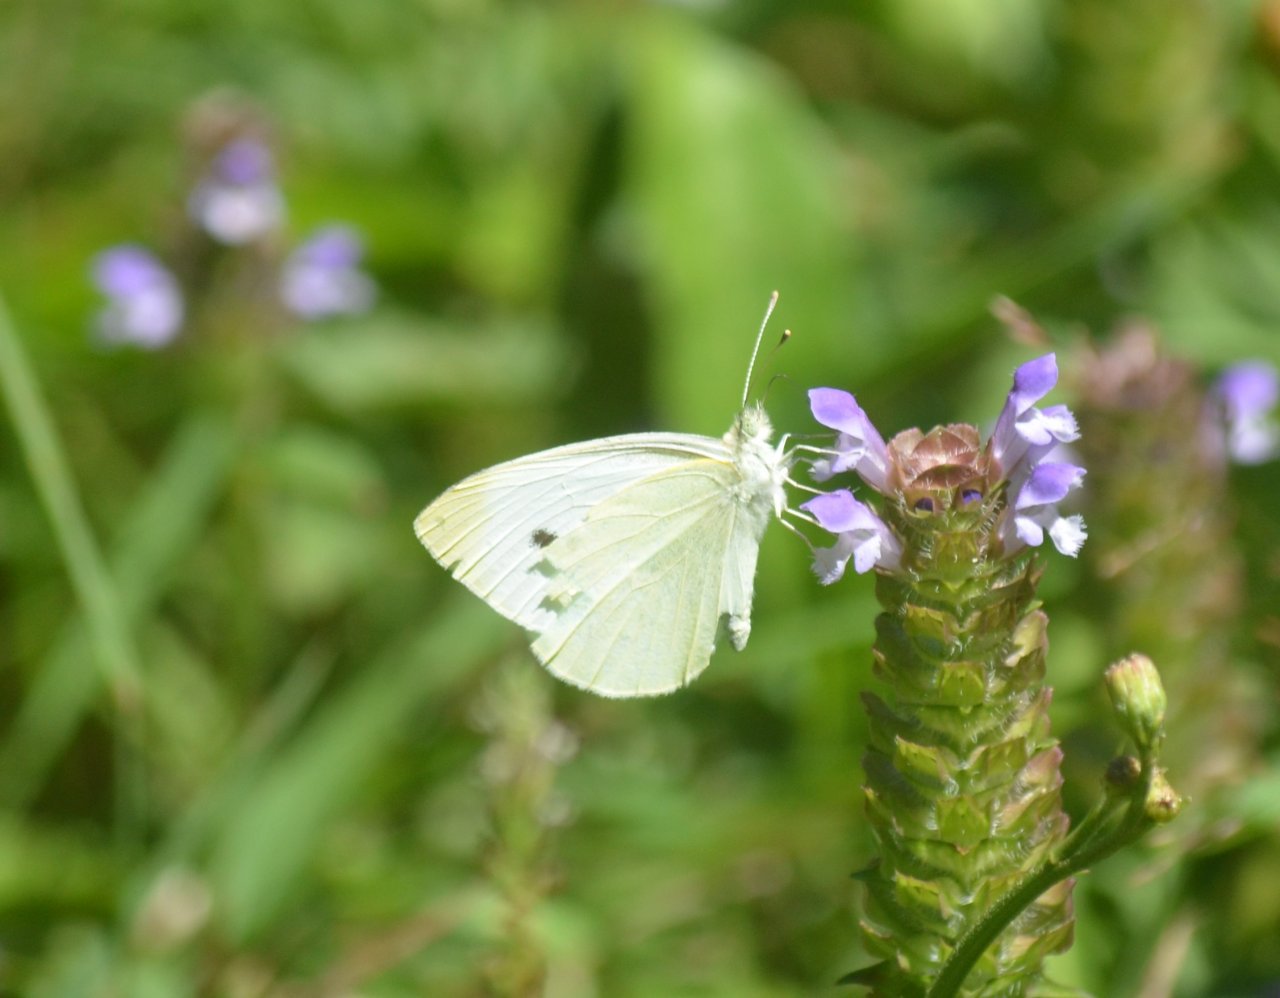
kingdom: Animalia
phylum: Arthropoda
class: Insecta
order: Lepidoptera
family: Pieridae
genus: Pieris
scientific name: Pieris rapae
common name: Cabbage White
